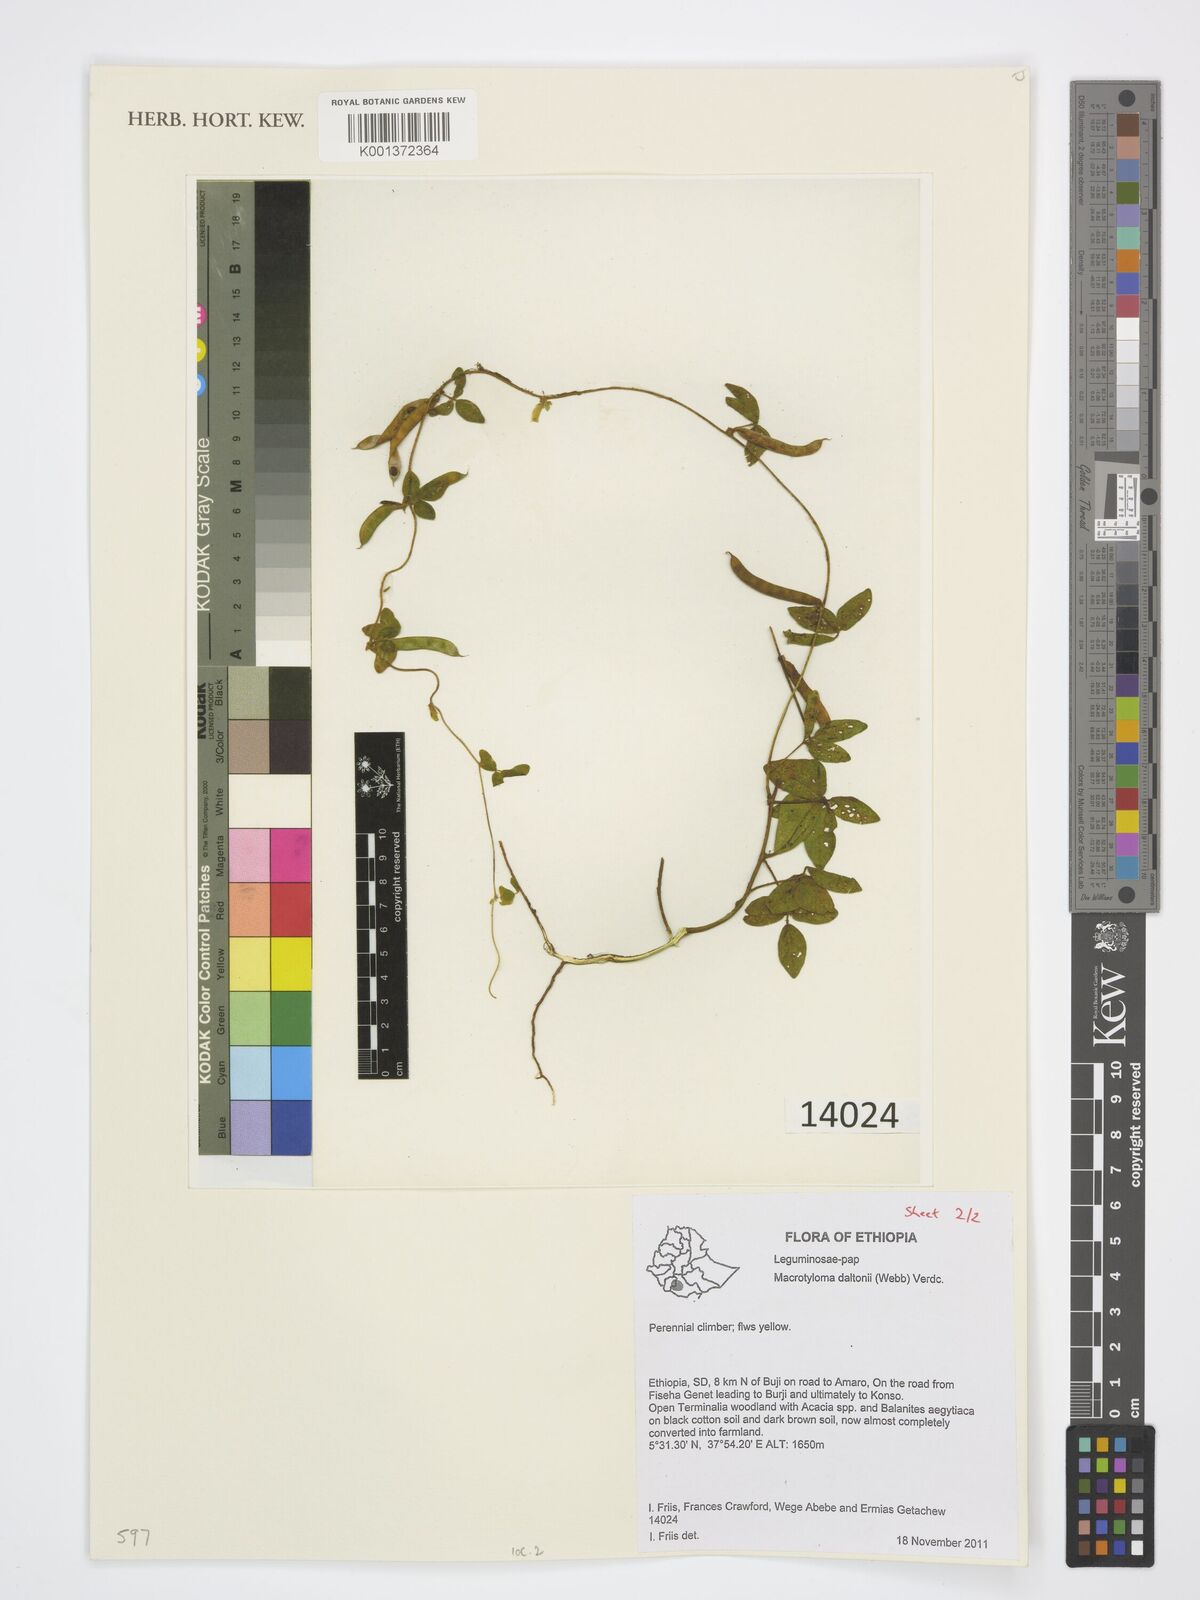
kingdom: Plantae
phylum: Tracheophyta
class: Magnoliopsida
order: Fabales
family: Fabaceae
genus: Macrotyloma
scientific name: Macrotyloma daltonii
